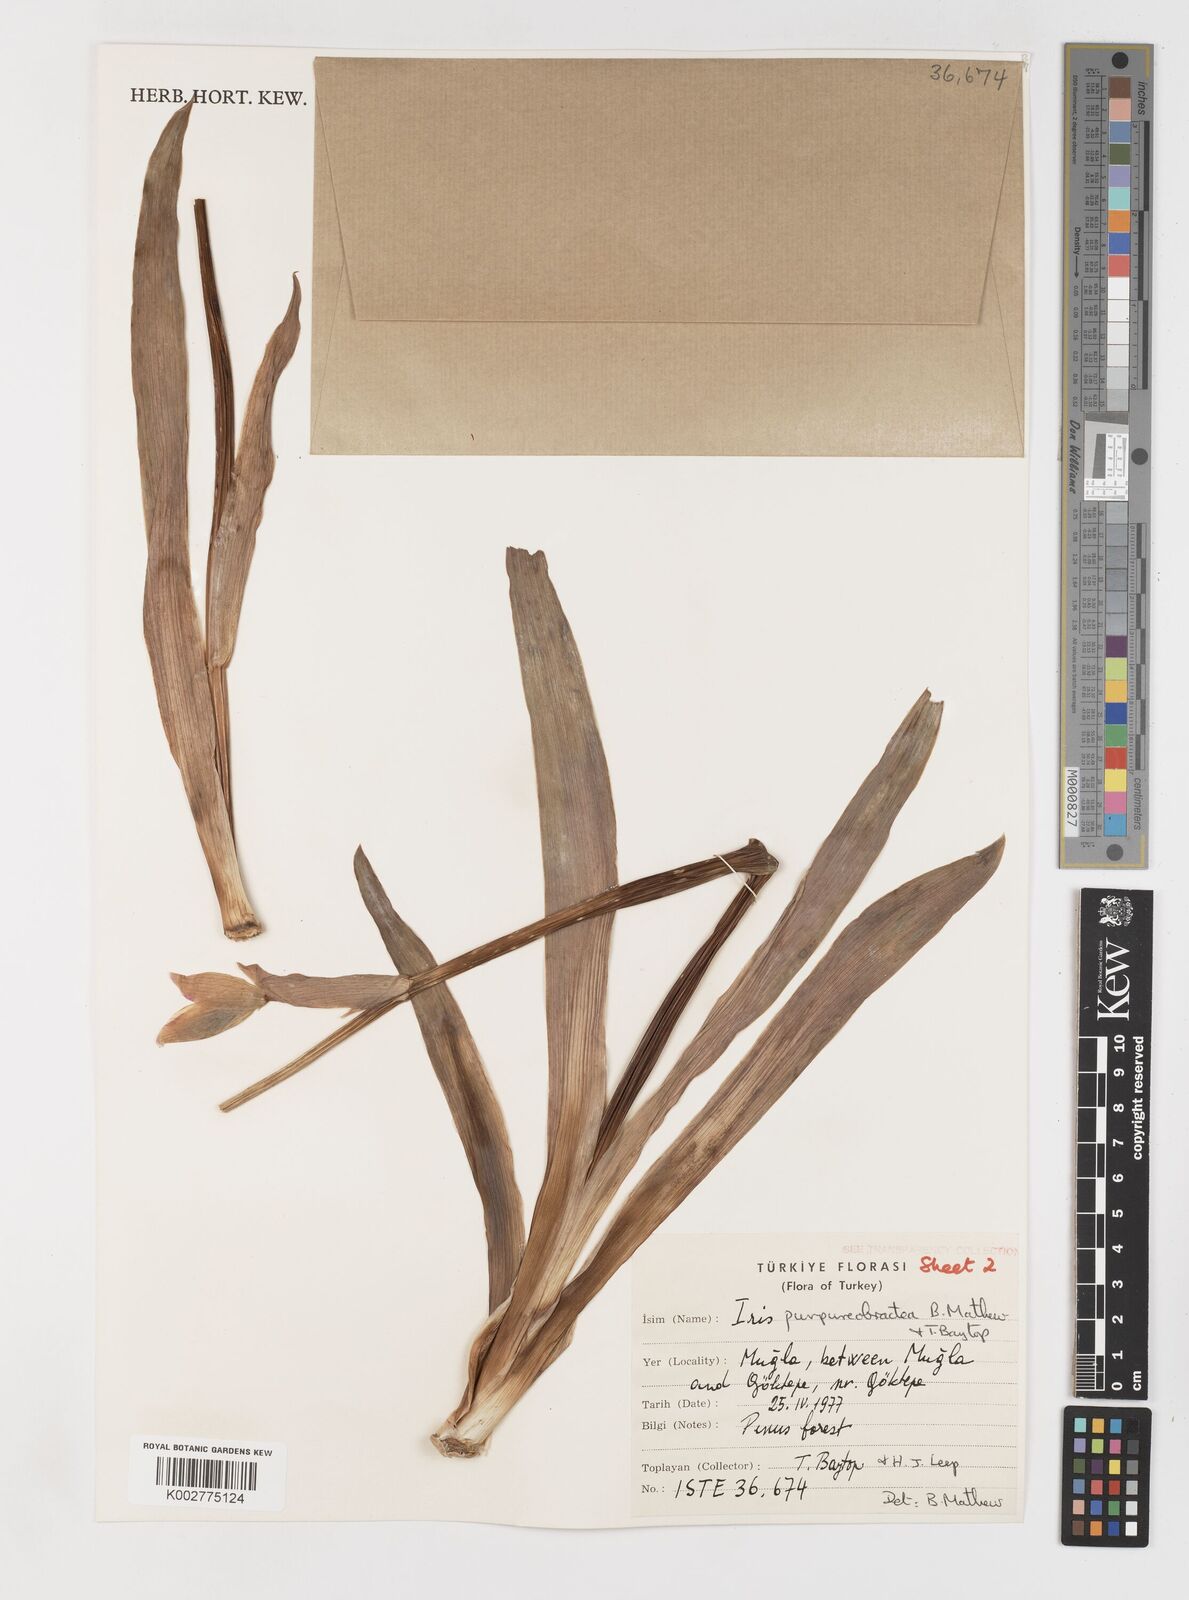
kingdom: Plantae
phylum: Tracheophyta
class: Liliopsida
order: Asparagales
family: Iridaceae
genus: Iris
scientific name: Iris purpureobractea
